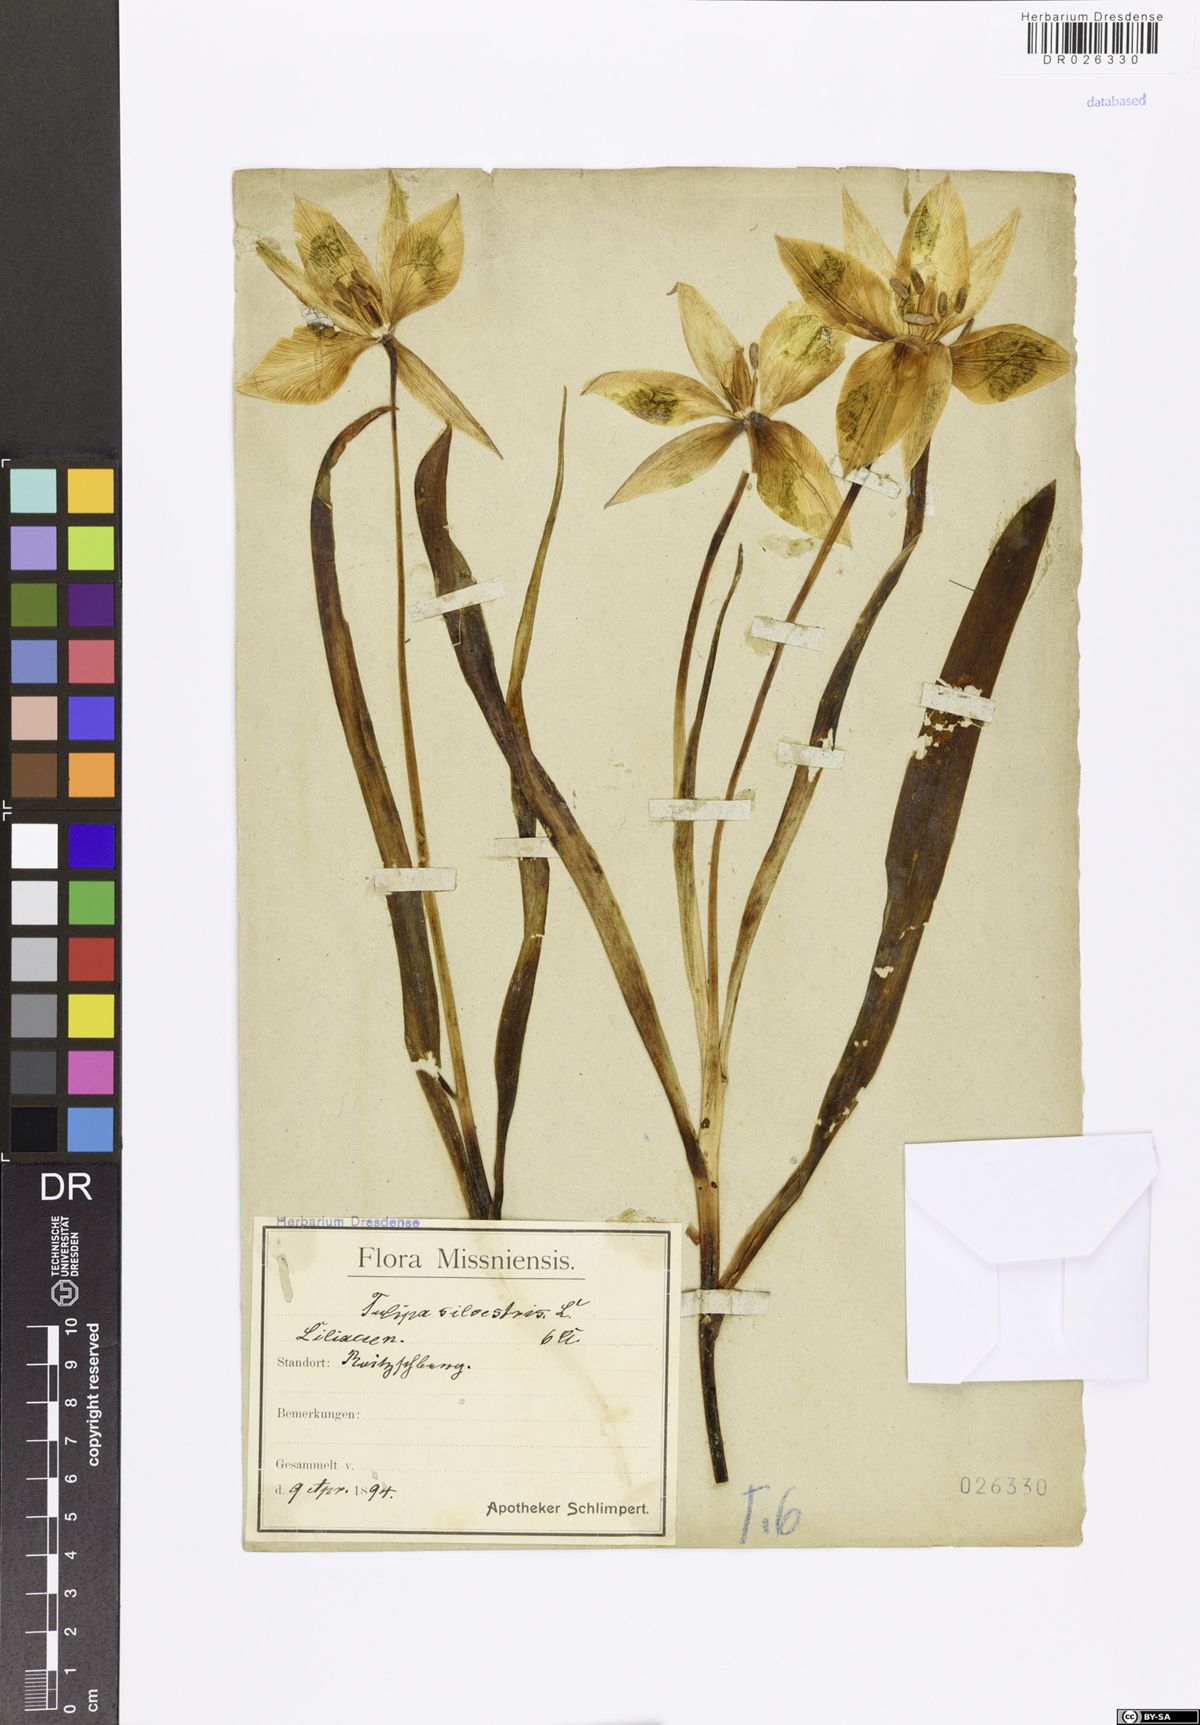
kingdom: Plantae
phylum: Tracheophyta
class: Liliopsida
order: Liliales
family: Liliaceae
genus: Tulipa
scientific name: Tulipa sylvestris
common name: Wild tulip
